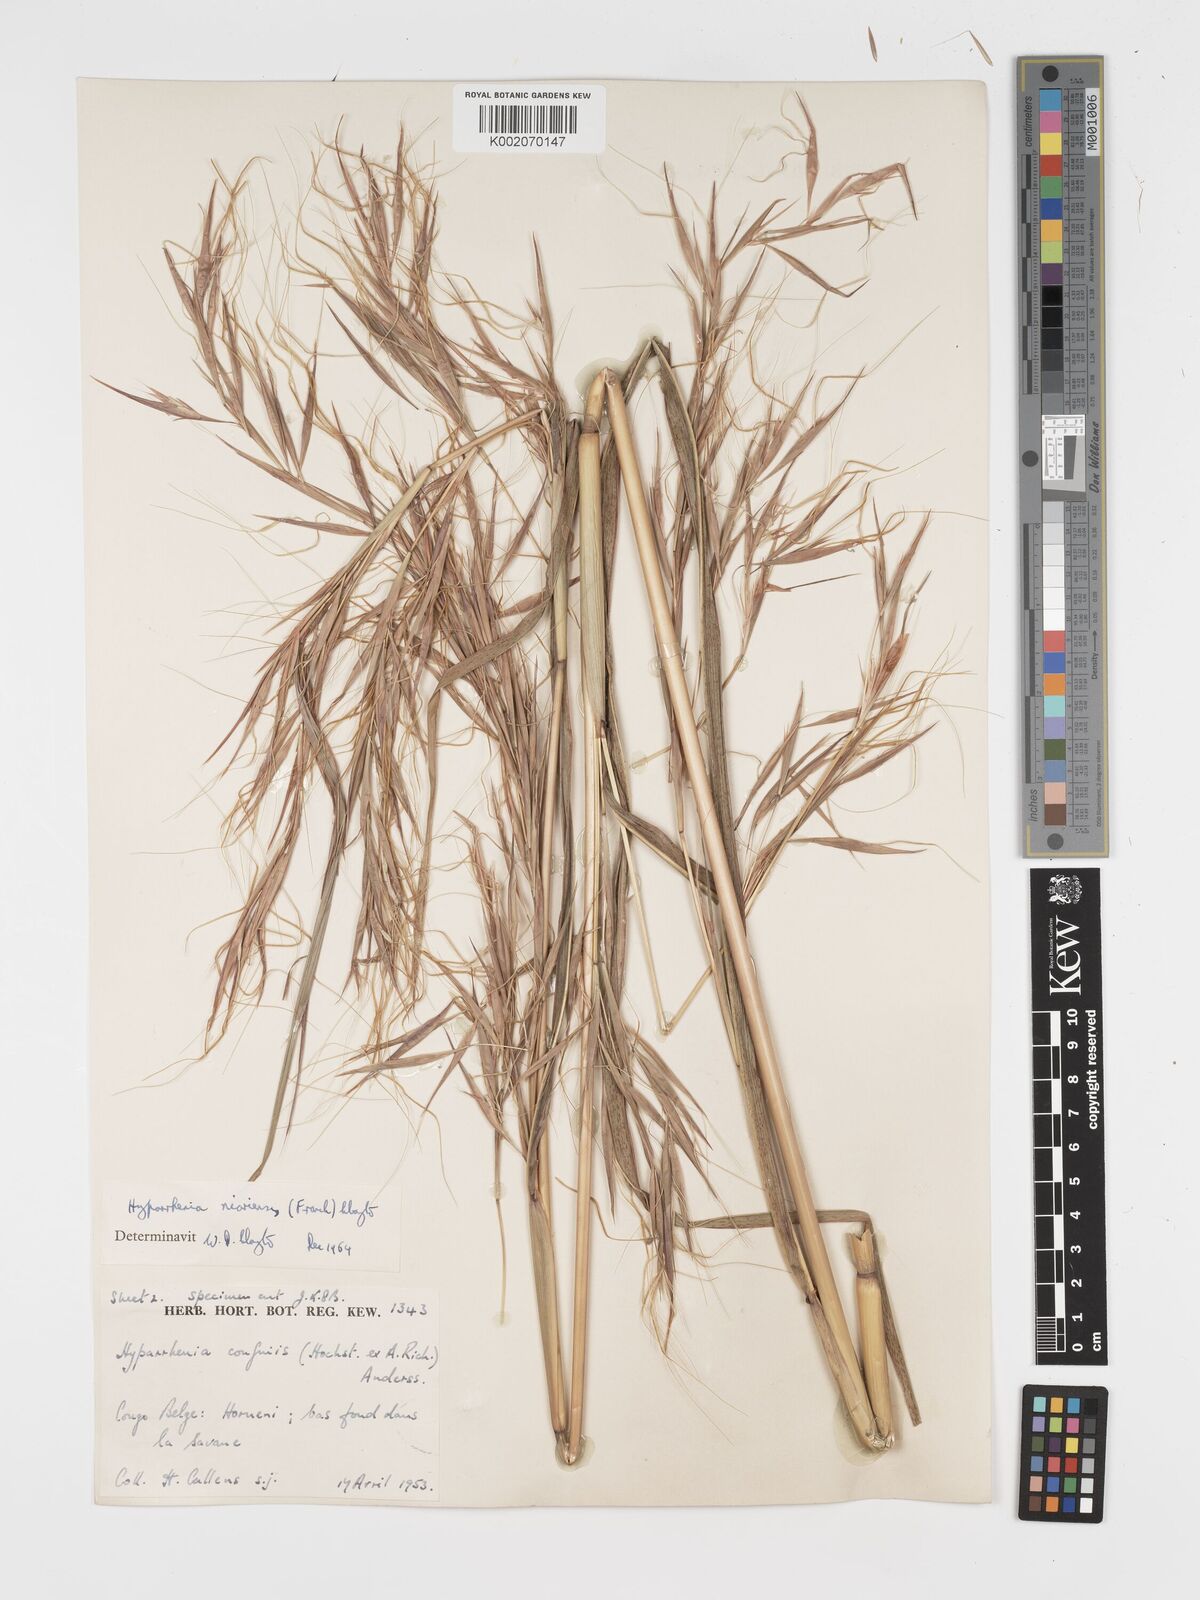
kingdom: Plantae
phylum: Tracheophyta
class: Liliopsida
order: Poales
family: Poaceae
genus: Hyparrhenia
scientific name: Hyparrhenia niariensis
